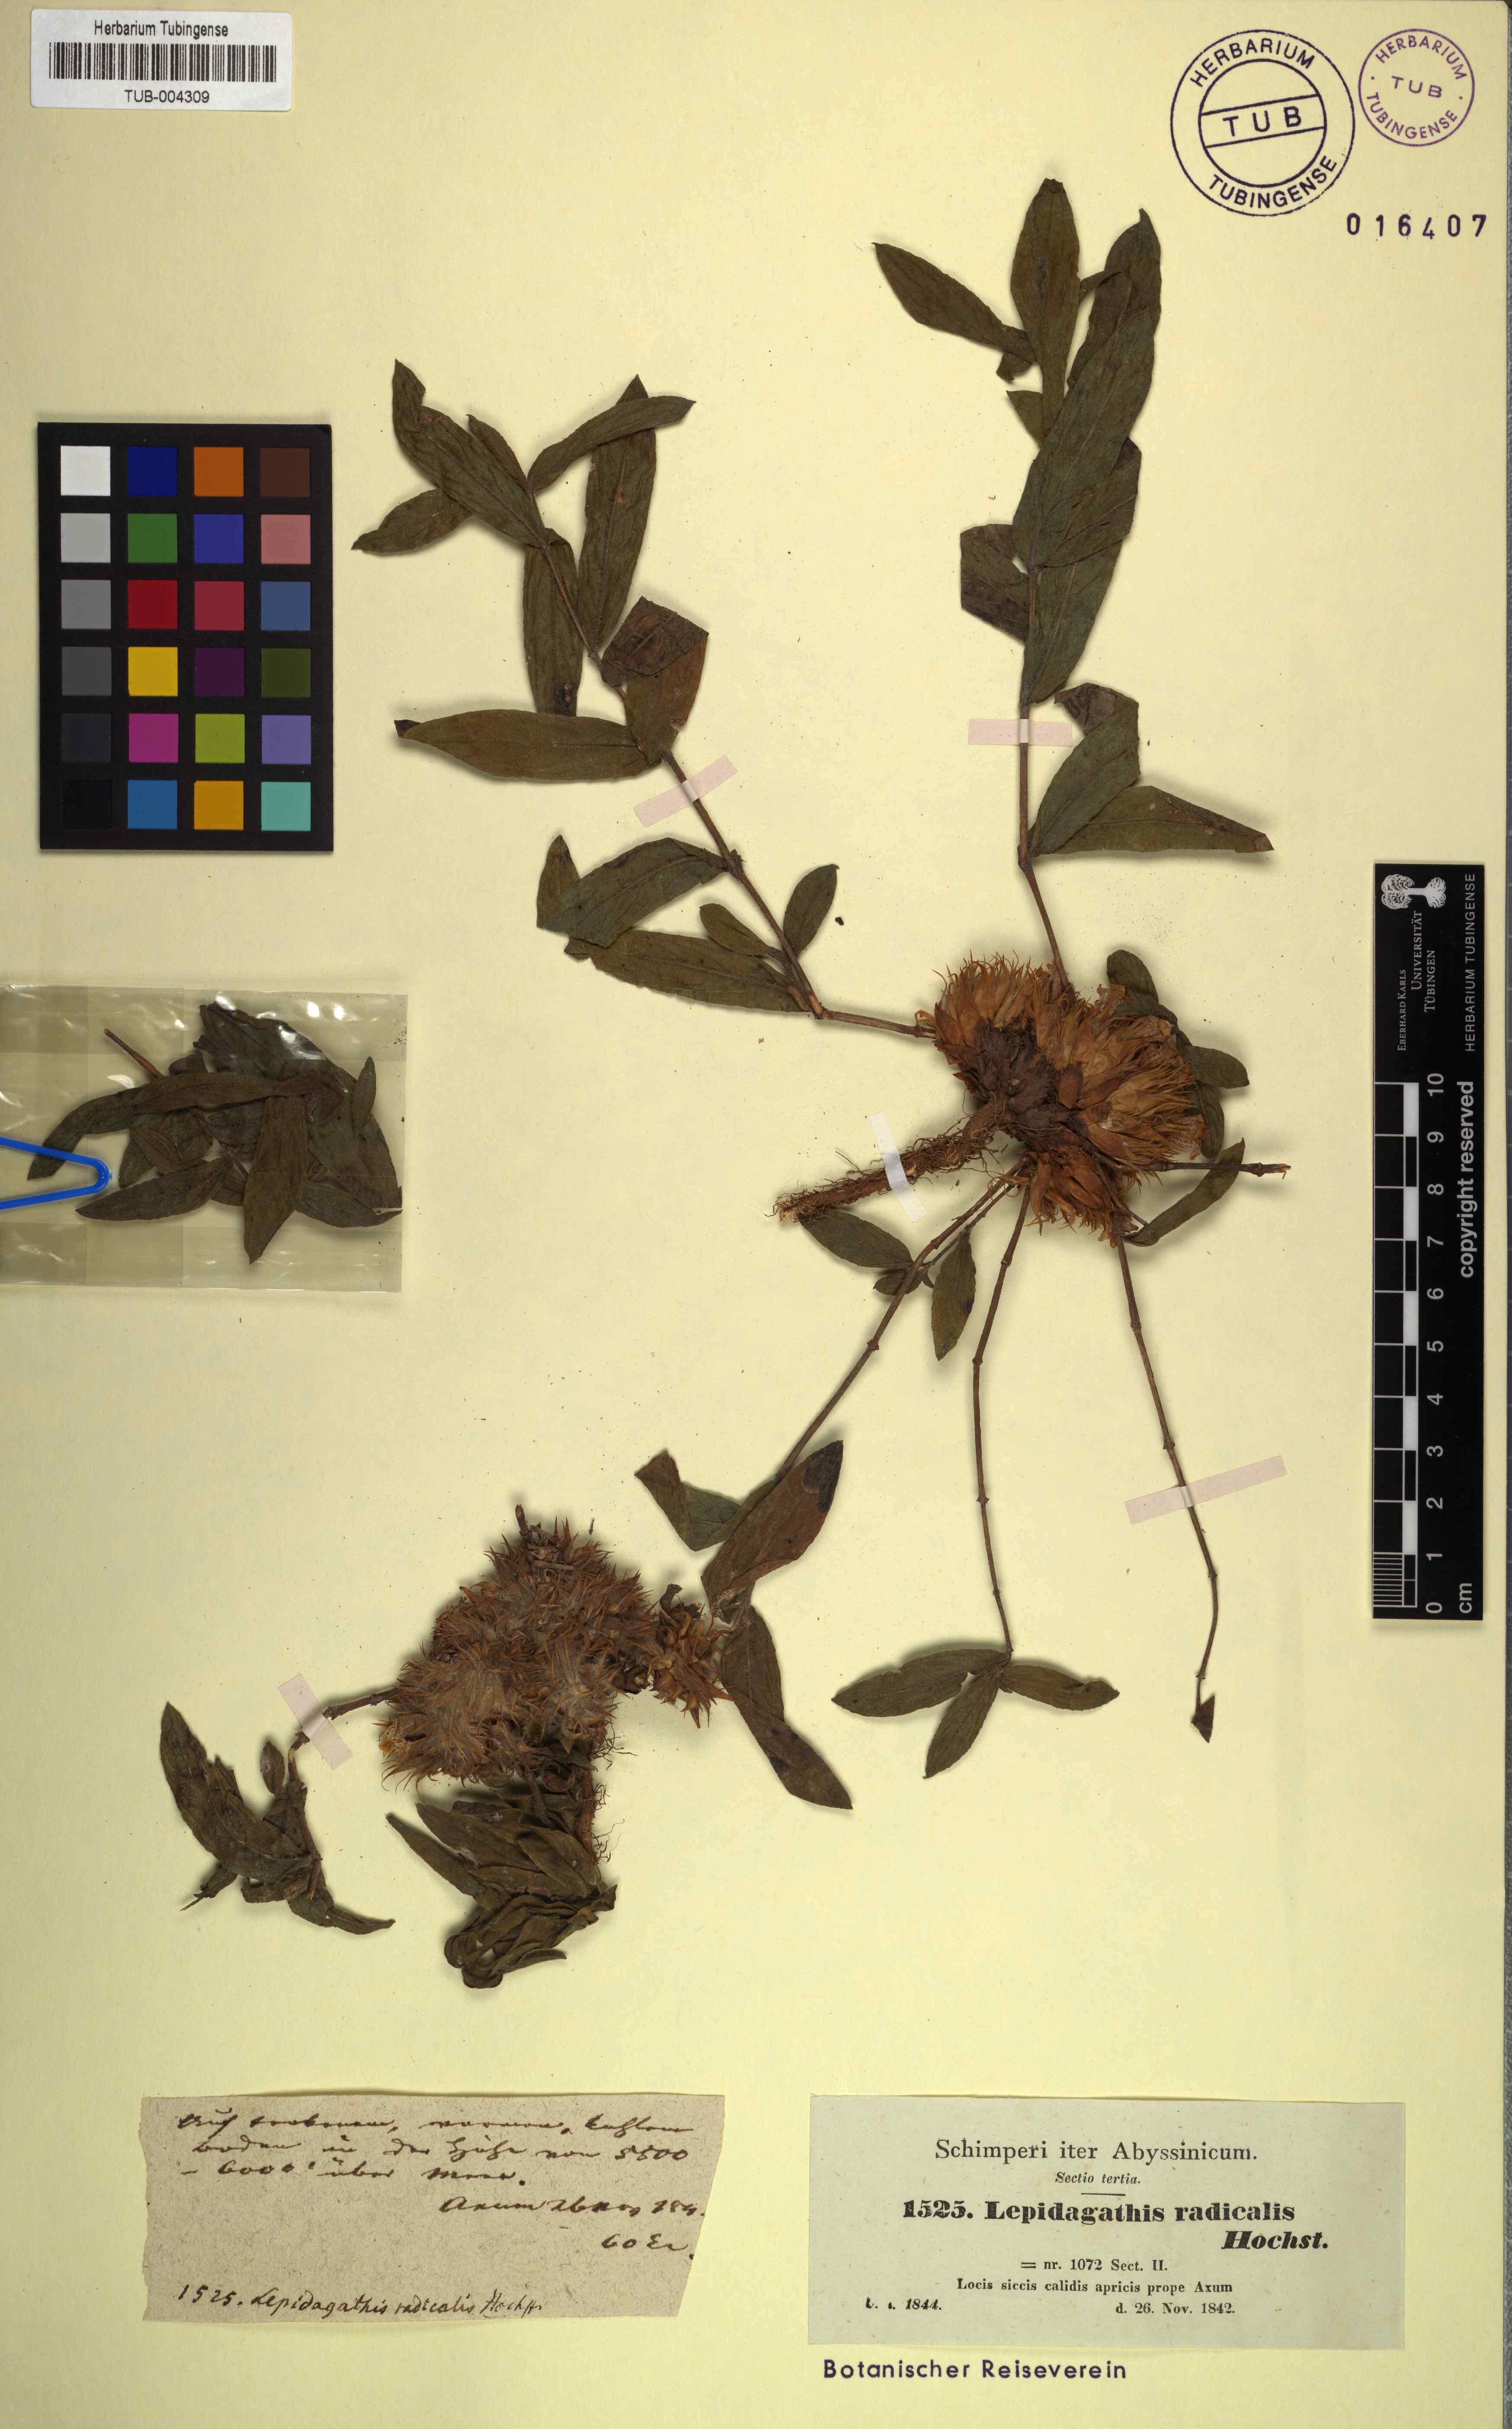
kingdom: Plantae
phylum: Tracheophyta
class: Magnoliopsida
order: Lamiales
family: Acanthaceae
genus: Lepidagathis
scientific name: Lepidagathis collina
